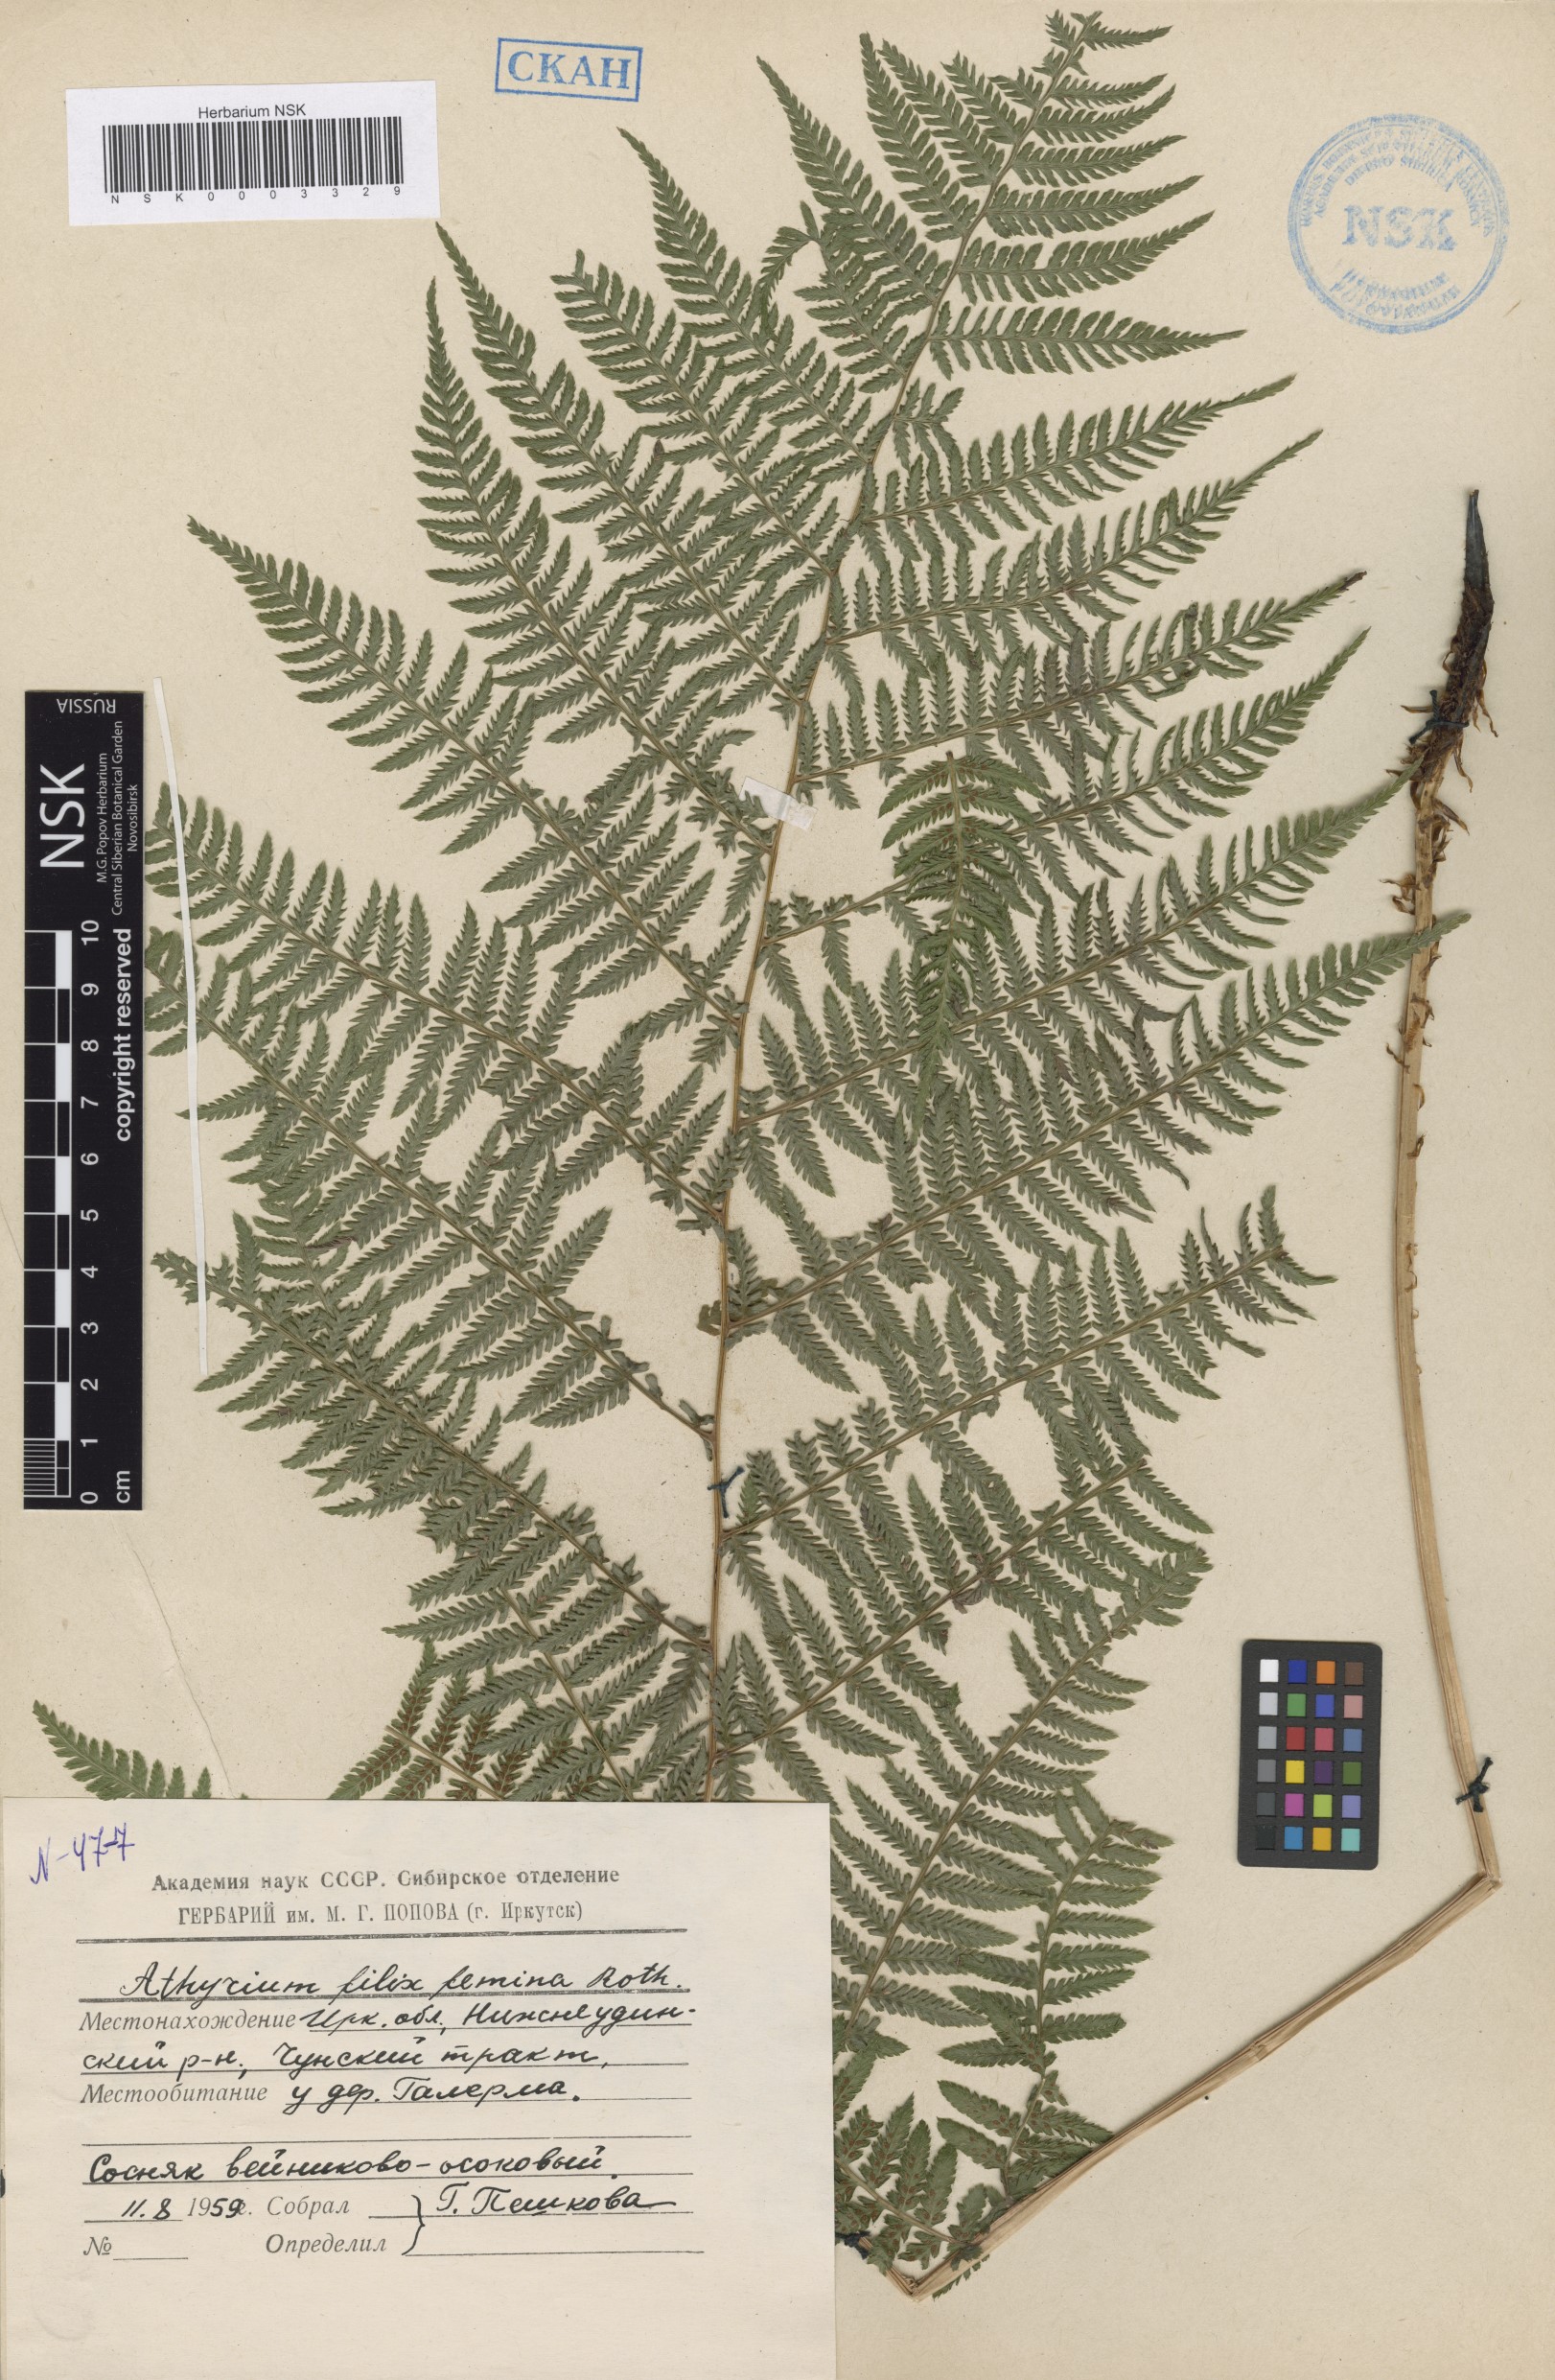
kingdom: Plantae
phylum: Tracheophyta
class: Polypodiopsida
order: Polypodiales
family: Athyriaceae
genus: Athyrium
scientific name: Athyrium filix-femina
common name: Lady fern
